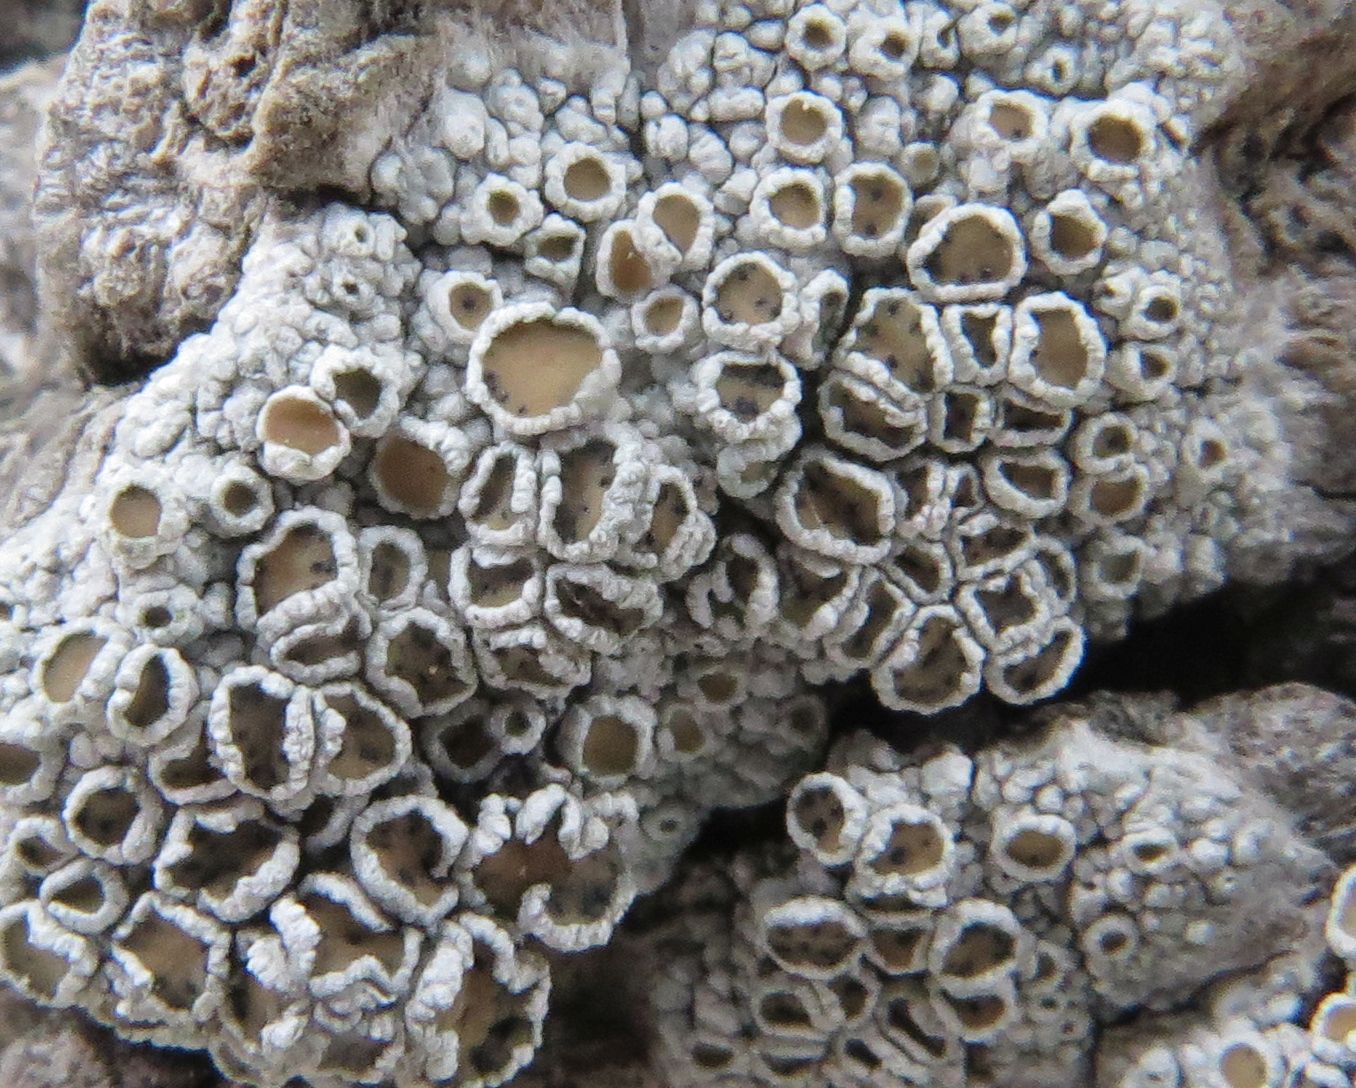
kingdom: Fungi
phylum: Ascomycota
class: Dothideomycetes
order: Pleosporales
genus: Vouauxiella
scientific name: Vouauxiella lichenicola
